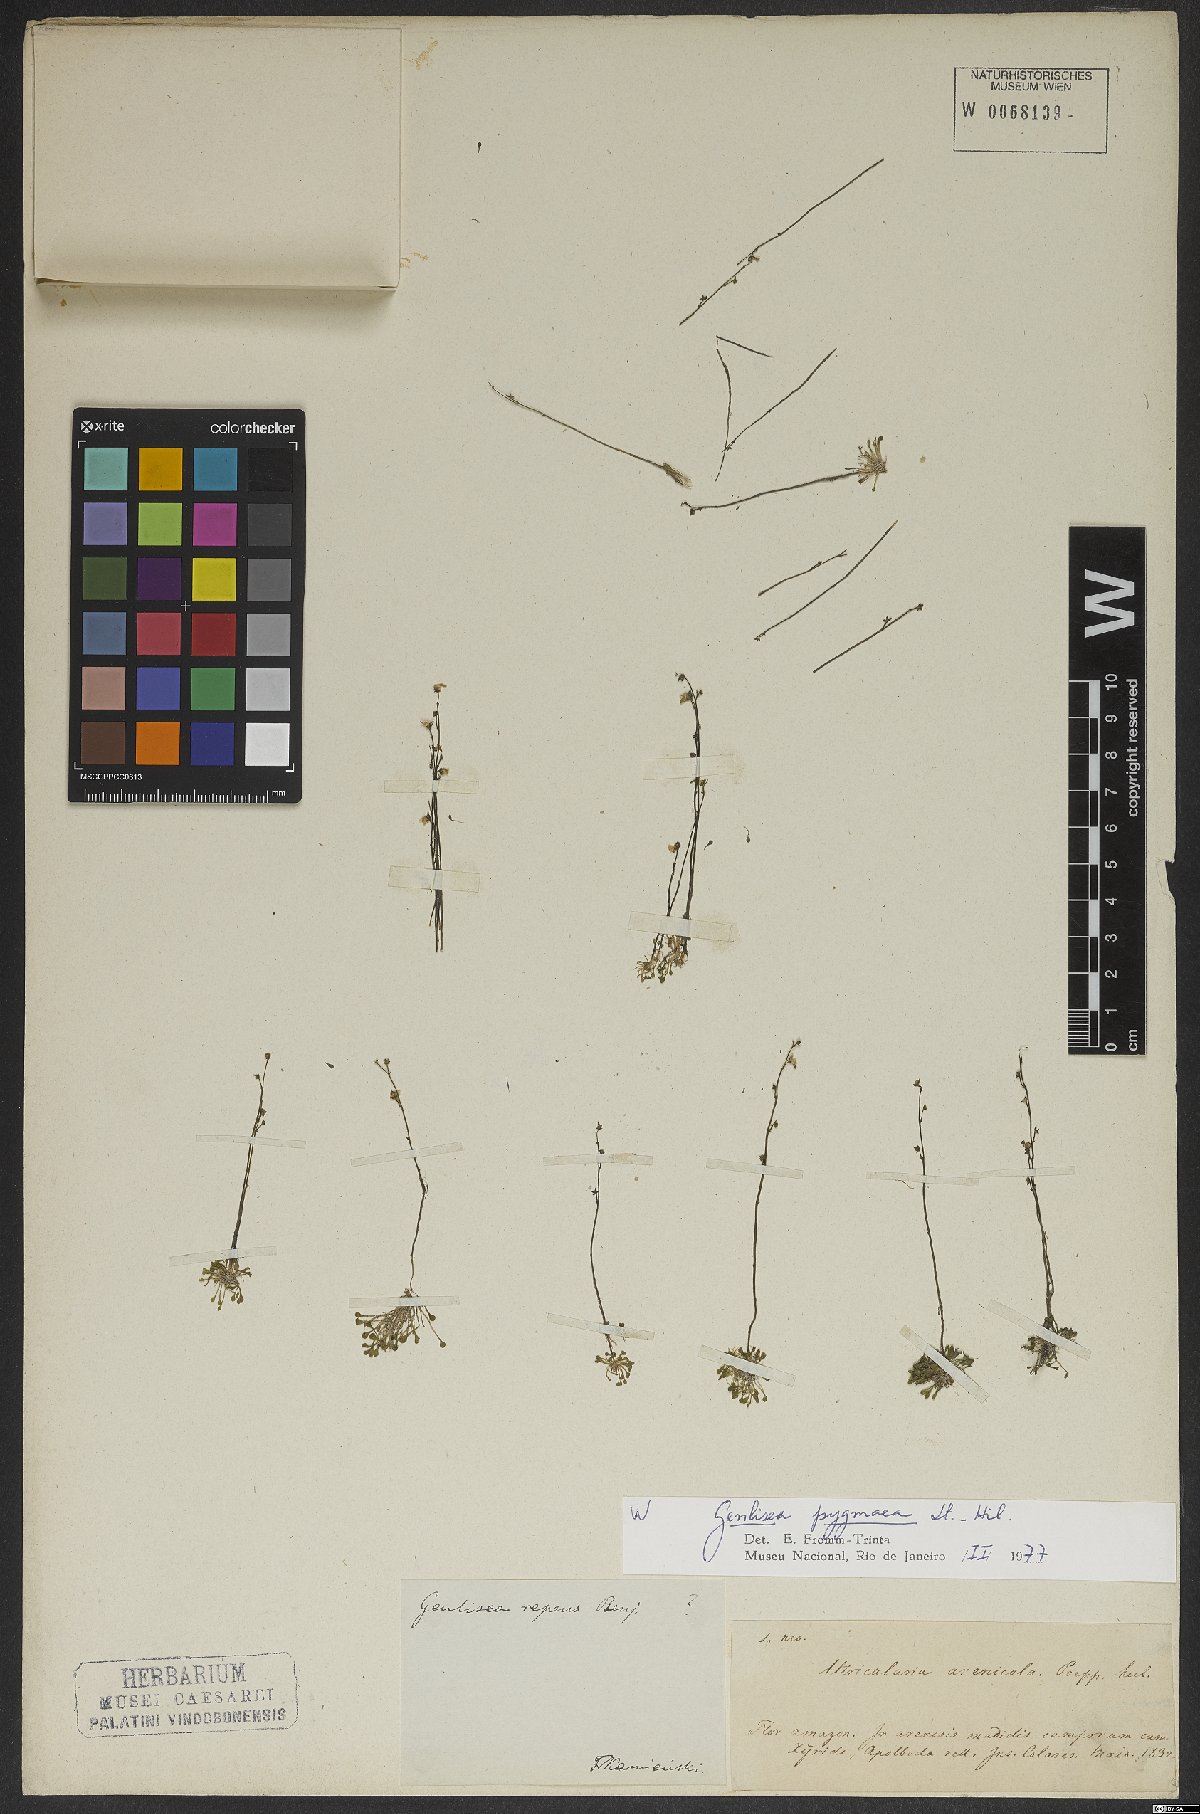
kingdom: Plantae
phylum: Tracheophyta
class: Magnoliopsida
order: Lamiales
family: Lentibulariaceae
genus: Genlisea
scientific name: Genlisea pygmaea
